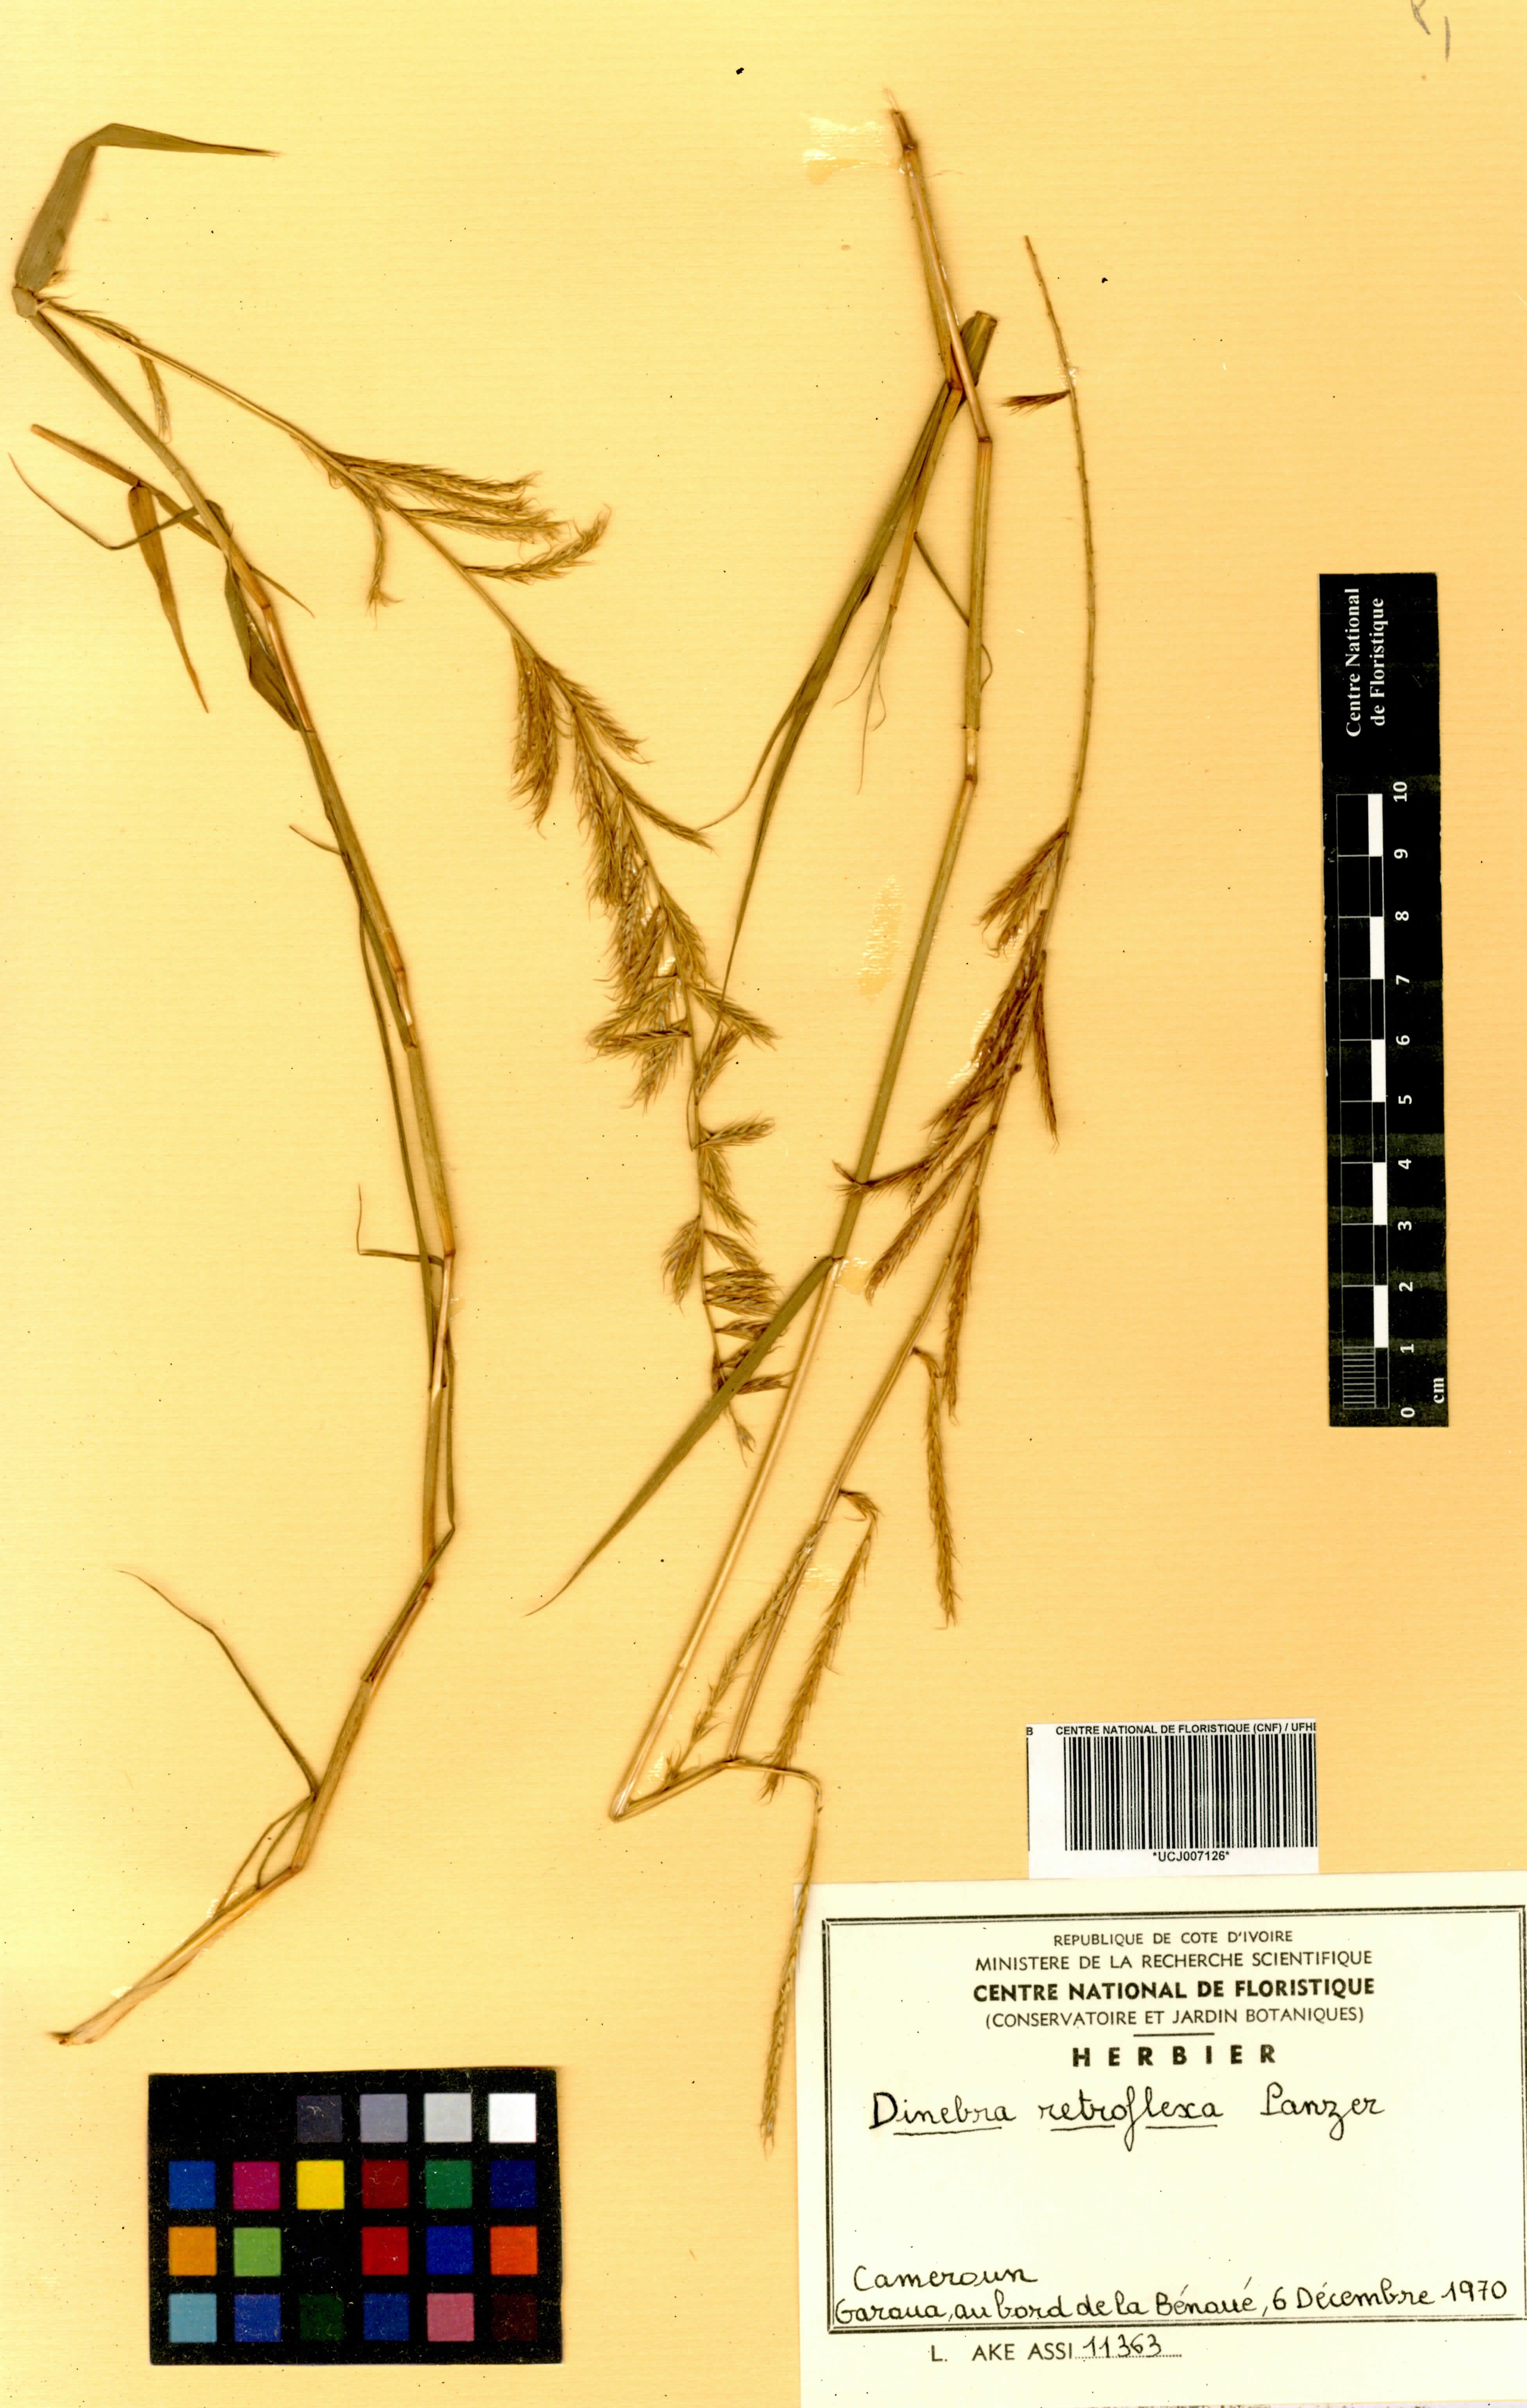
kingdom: Plantae
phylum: Tracheophyta
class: Liliopsida
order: Poales
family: Poaceae
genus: Dinebra
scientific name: Dinebra retroflexa
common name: Viper grass
